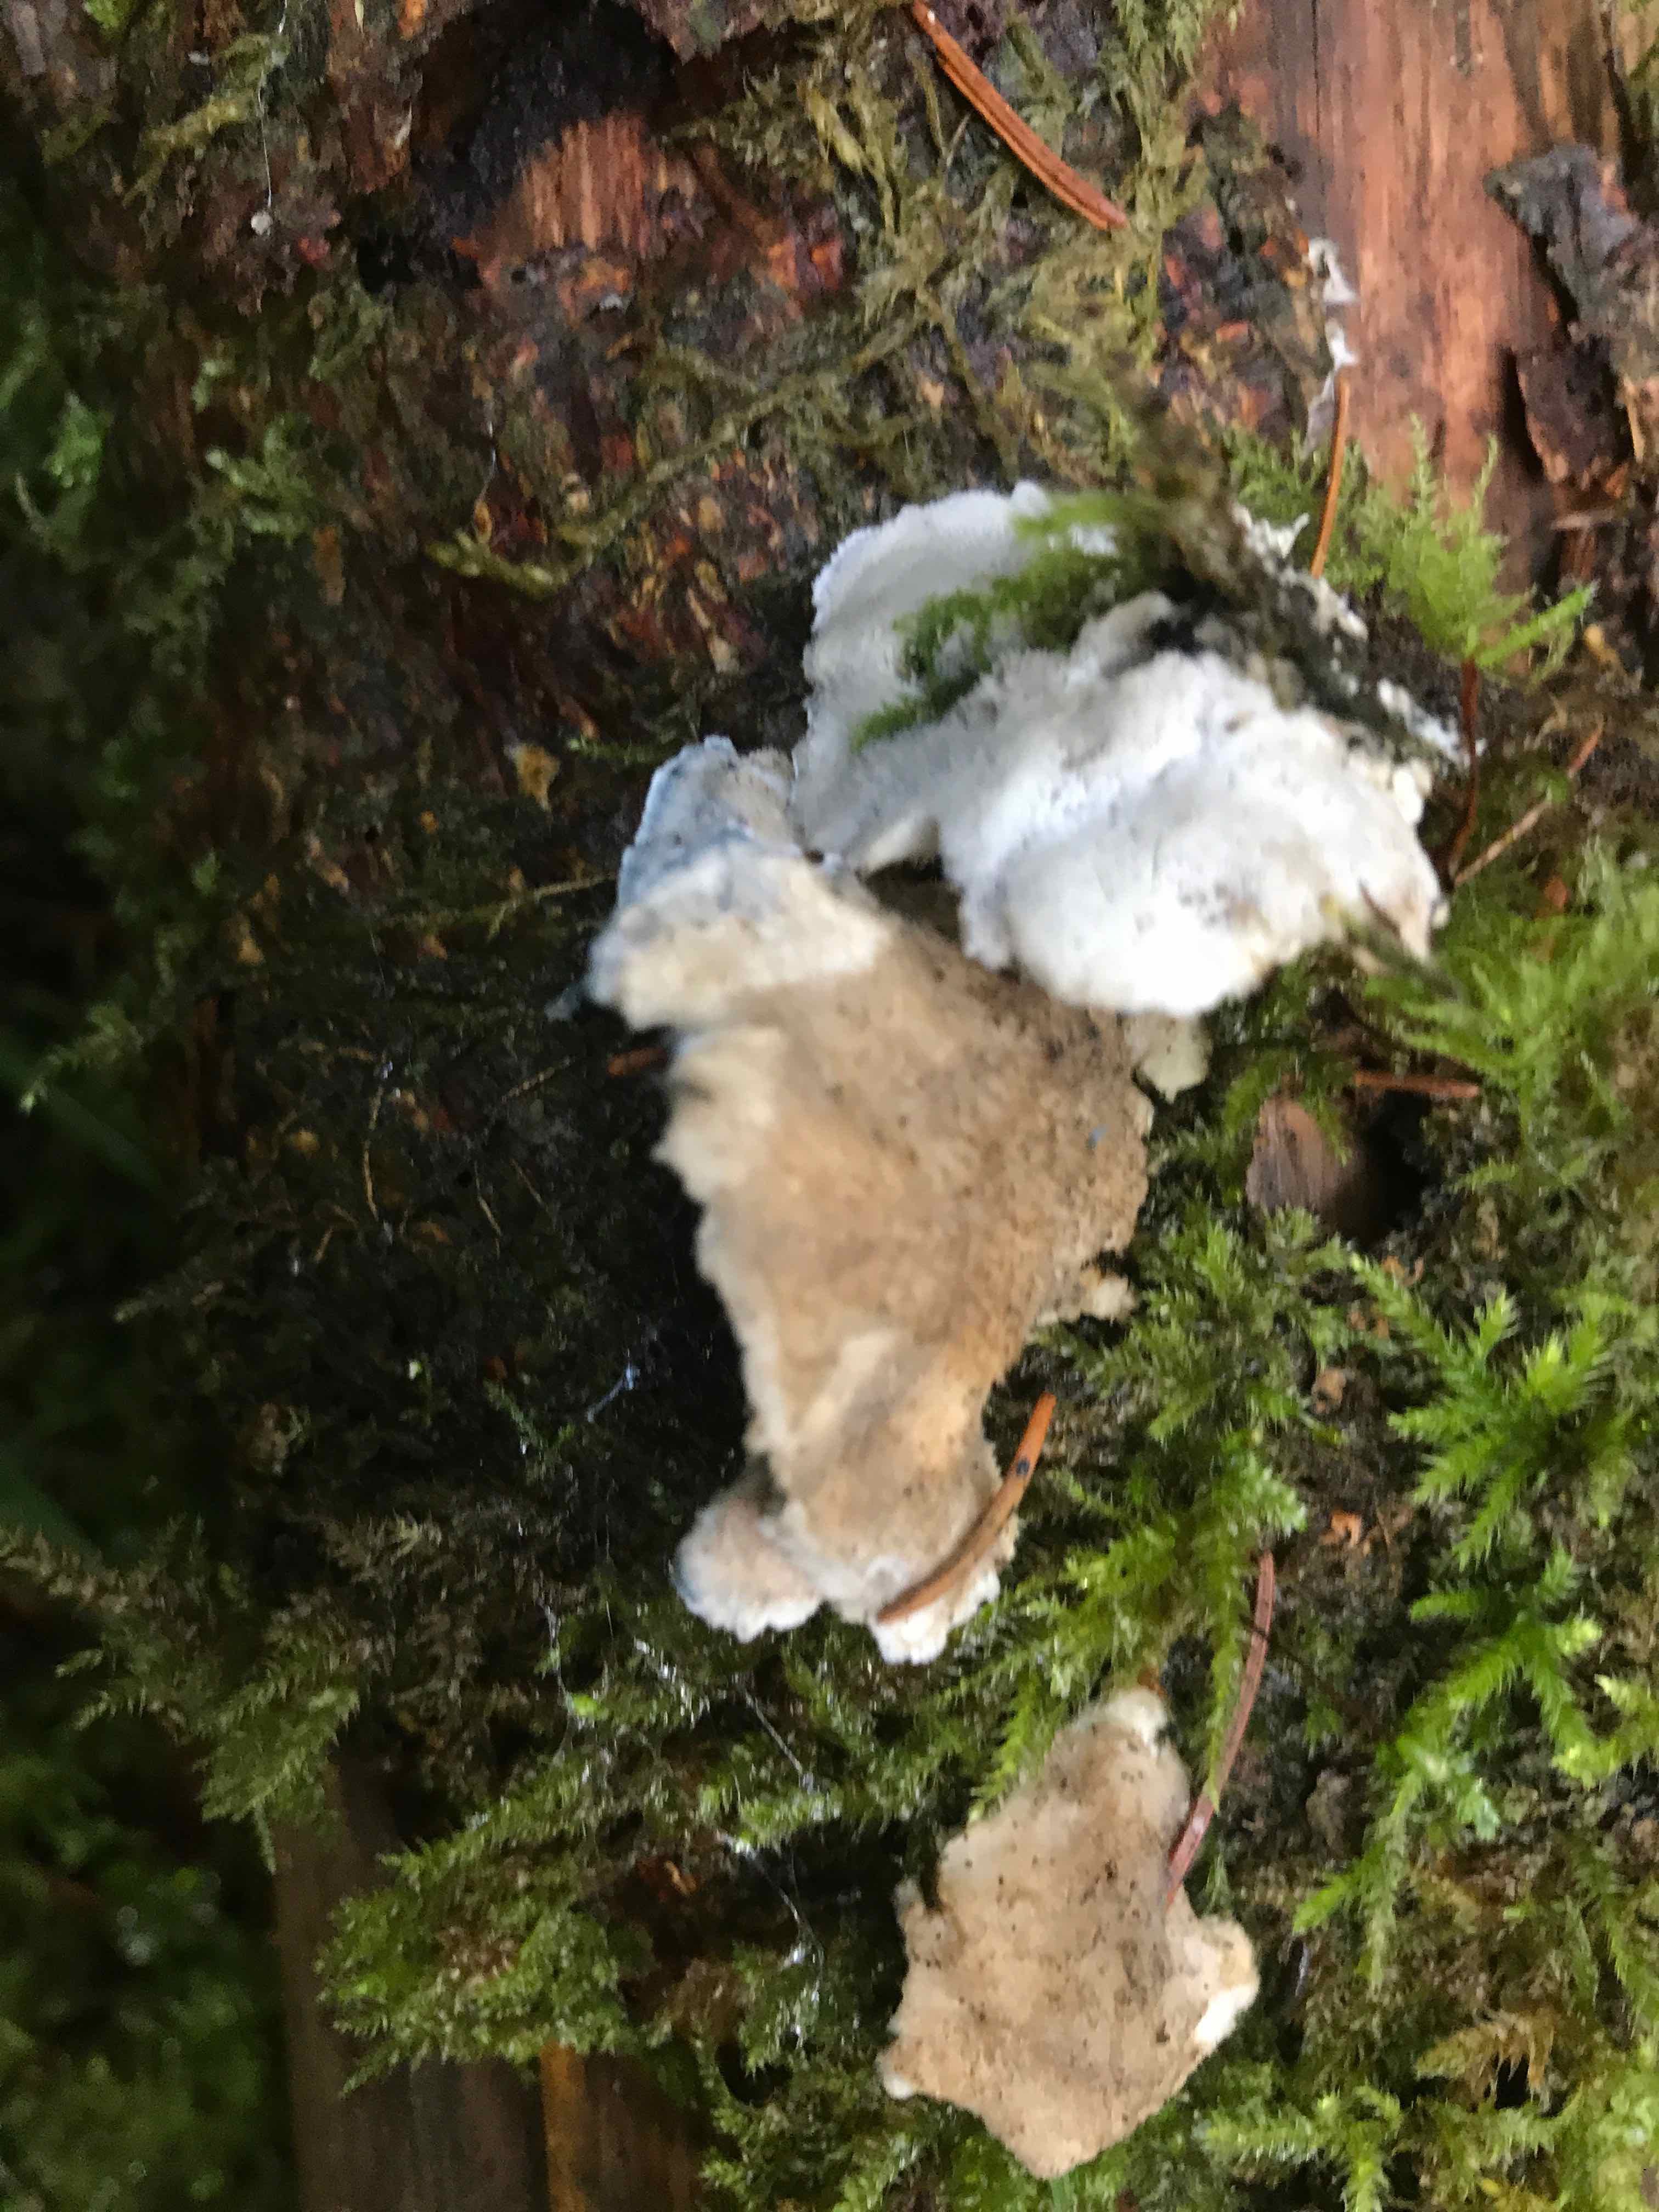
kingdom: Fungi
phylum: Basidiomycota
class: Agaricomycetes
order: Polyporales
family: Polyporaceae
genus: Cyanosporus
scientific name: Cyanosporus caesius
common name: blålig kødporesvamp
